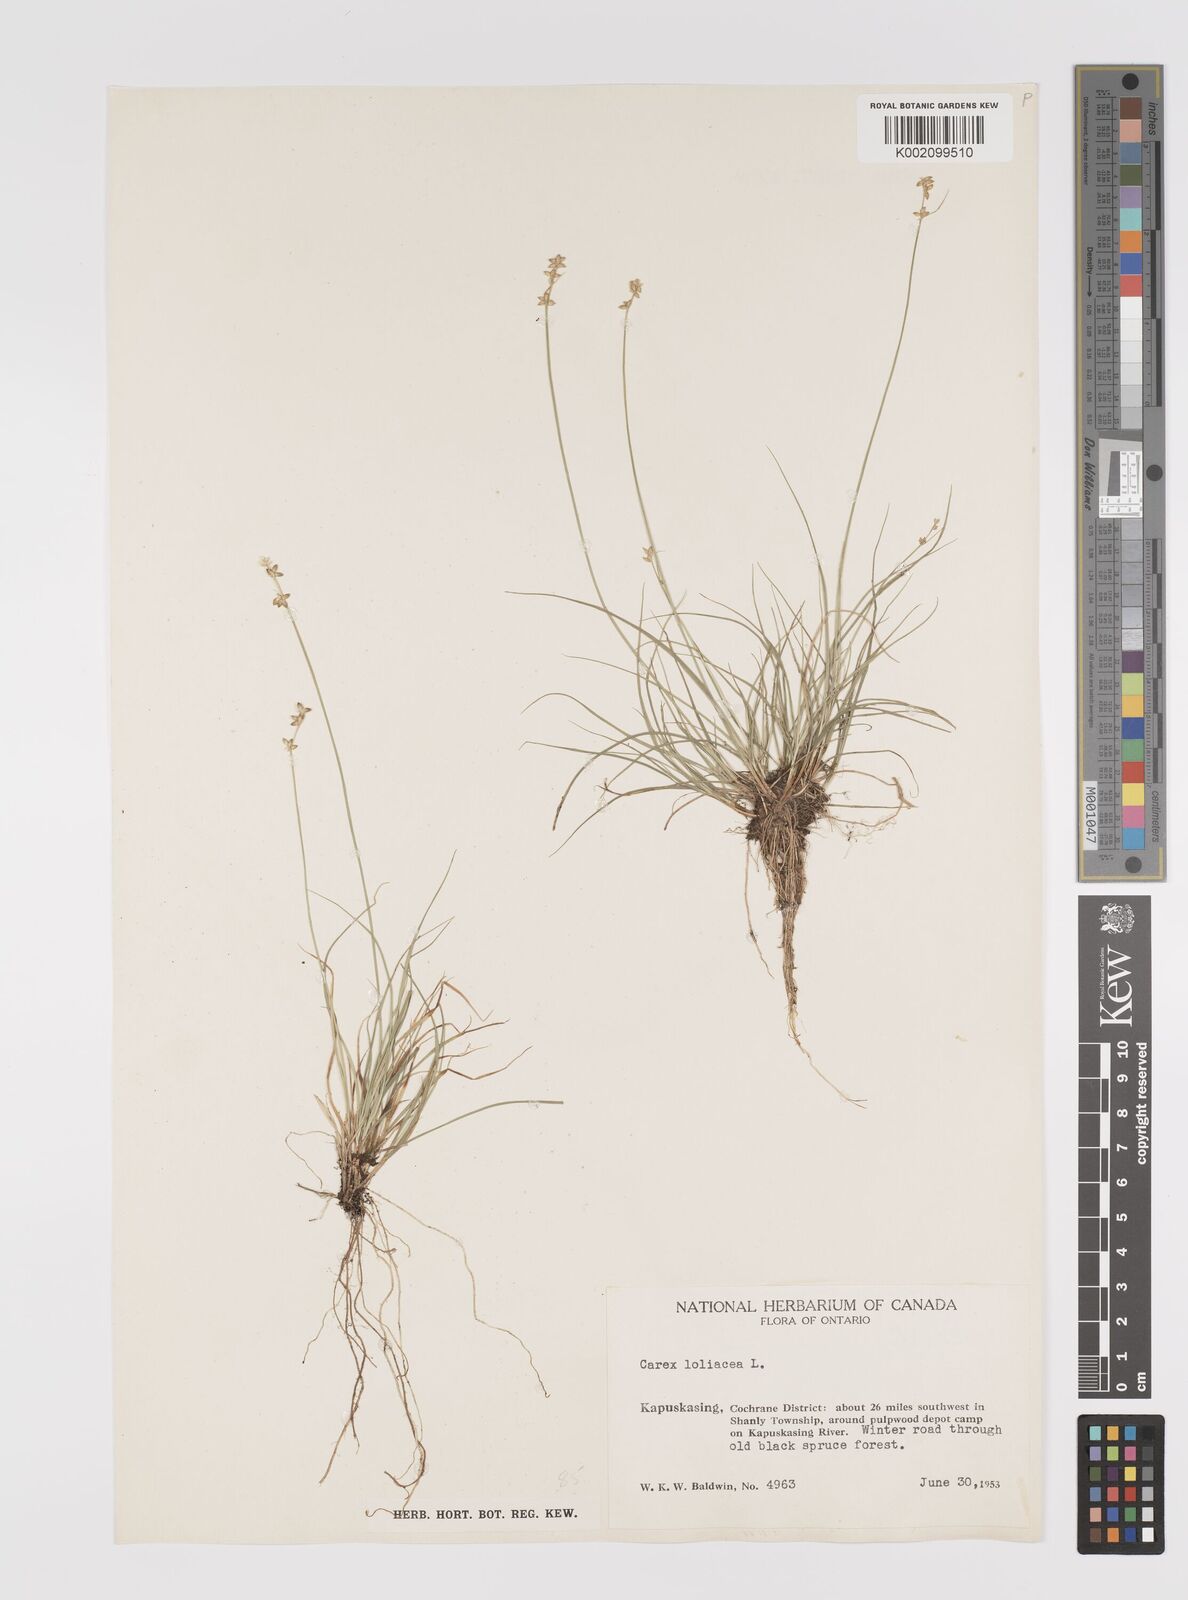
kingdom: Plantae
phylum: Tracheophyta
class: Liliopsida
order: Poales
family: Cyperaceae
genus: Carex
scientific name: Carex loliacea
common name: Ryegrass sedge
